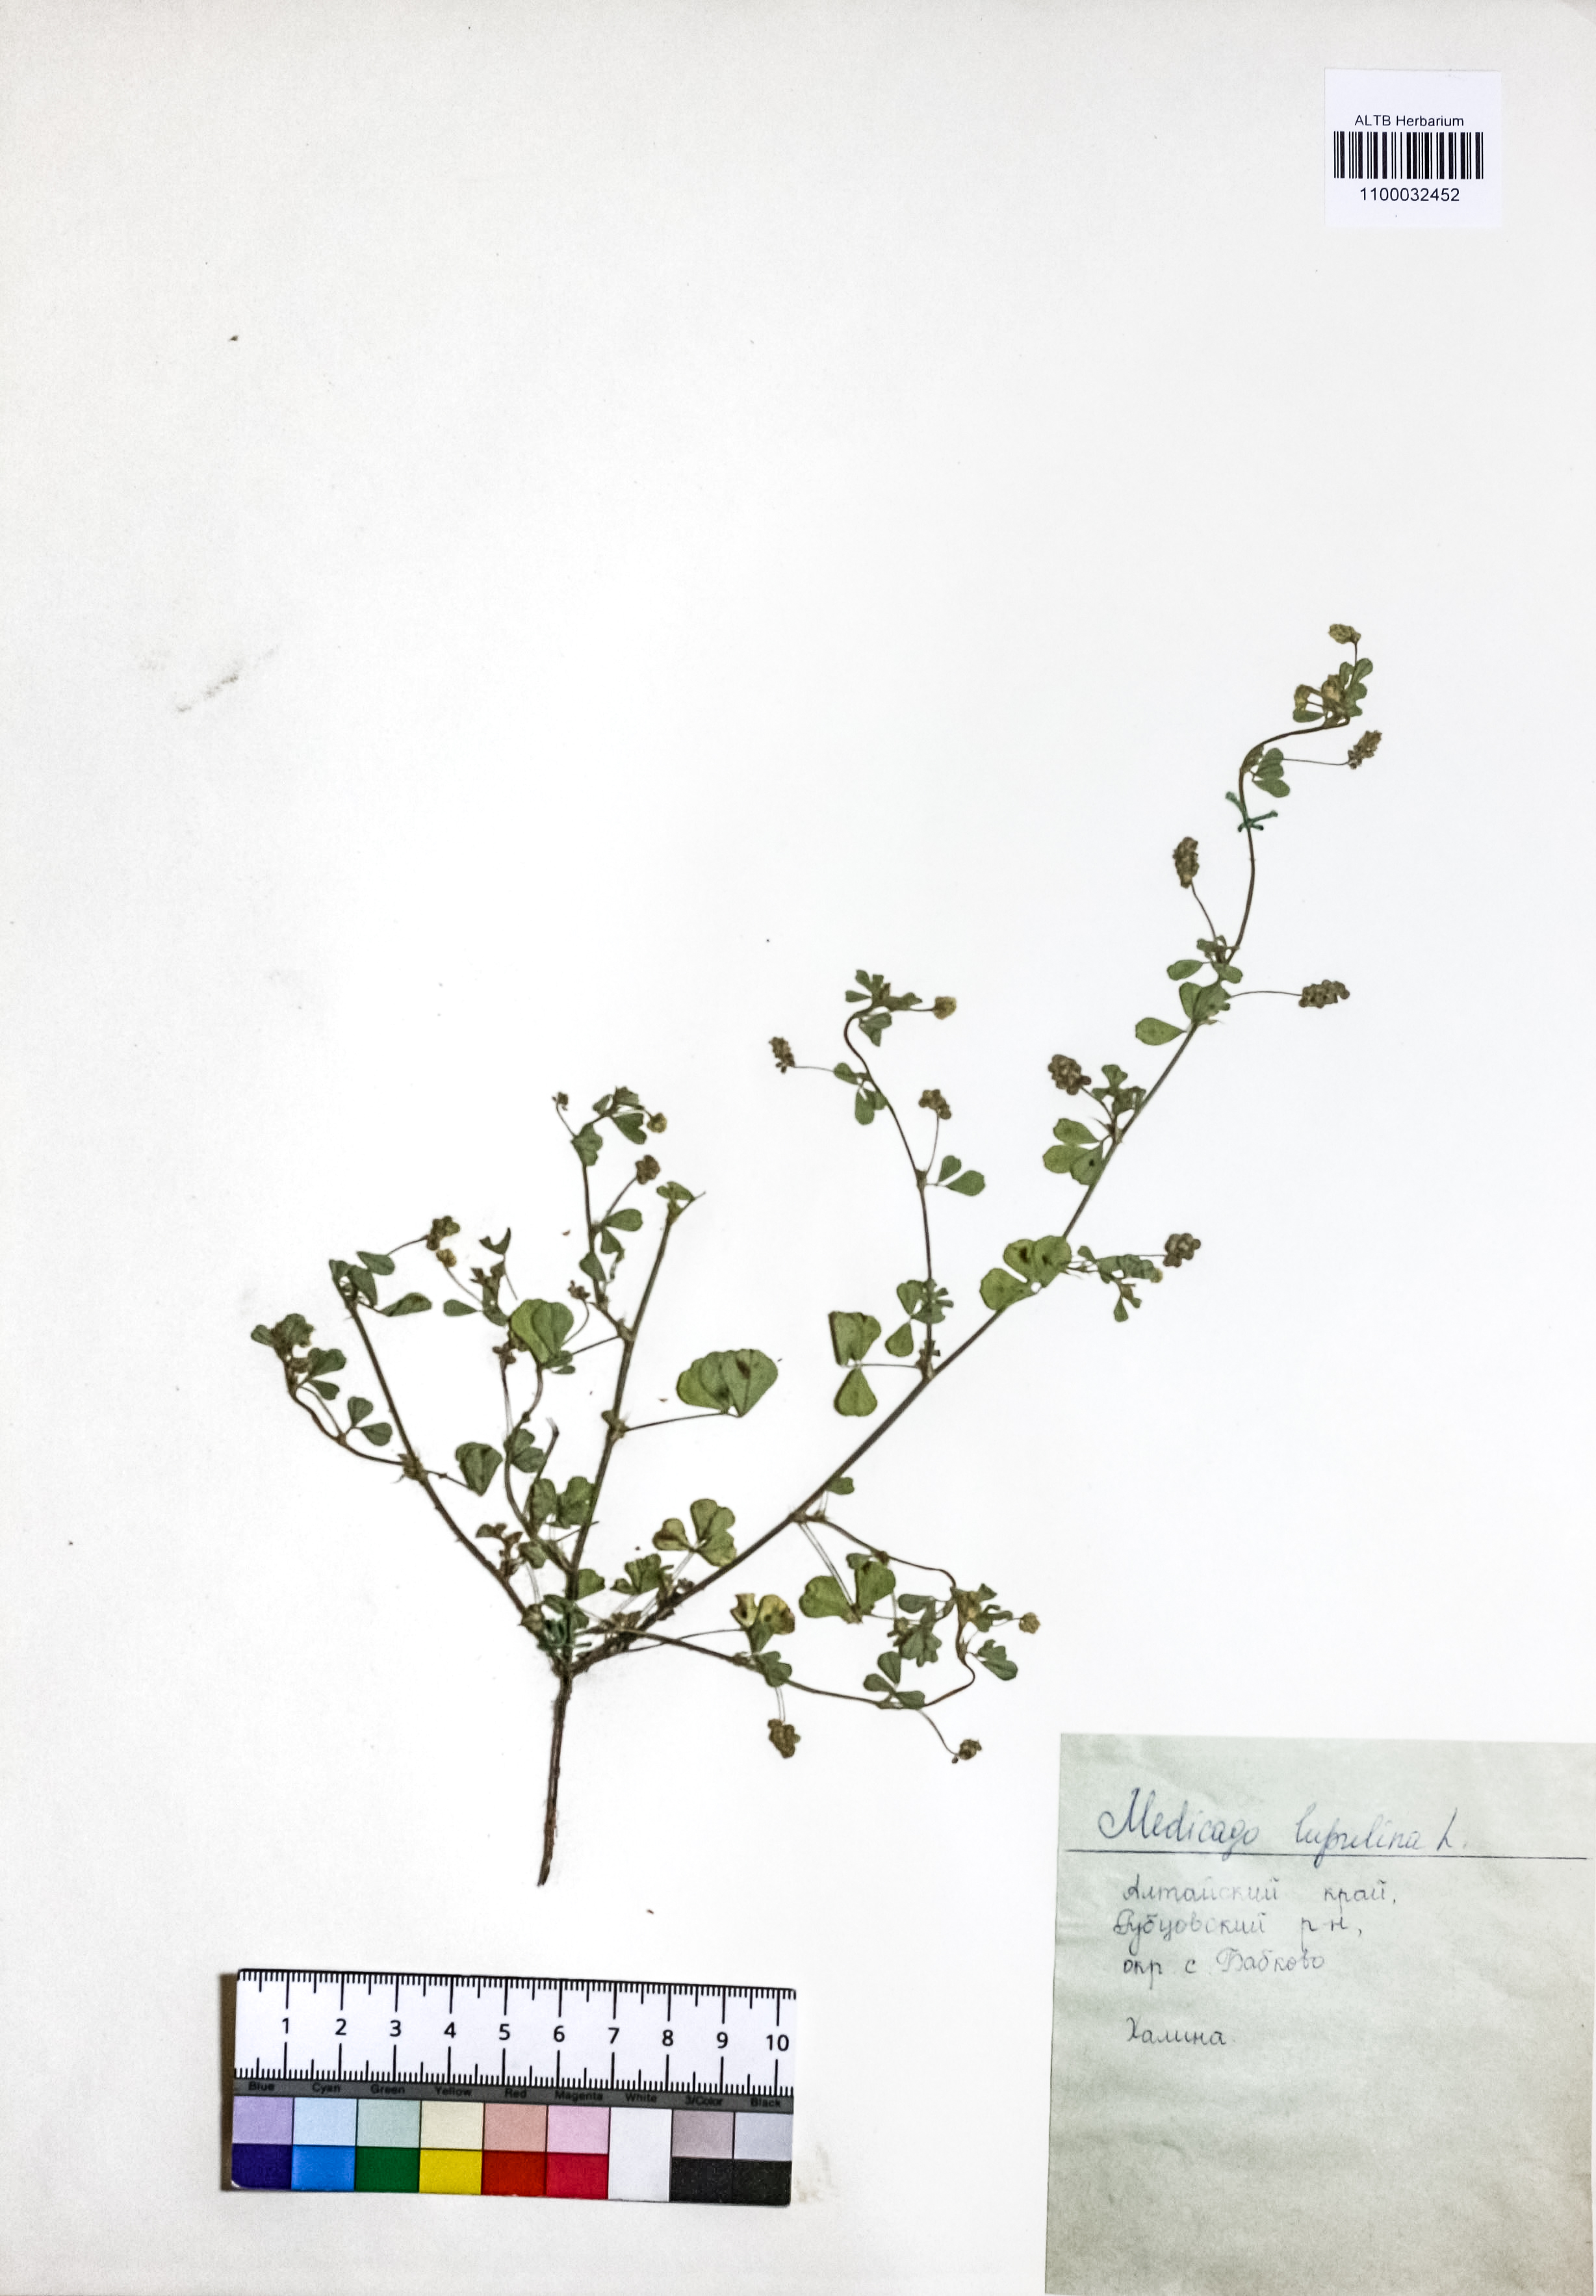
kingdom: Plantae
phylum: Tracheophyta
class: Magnoliopsida
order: Fabales
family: Fabaceae
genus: Medicago
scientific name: Medicago lupulina
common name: Black medick
